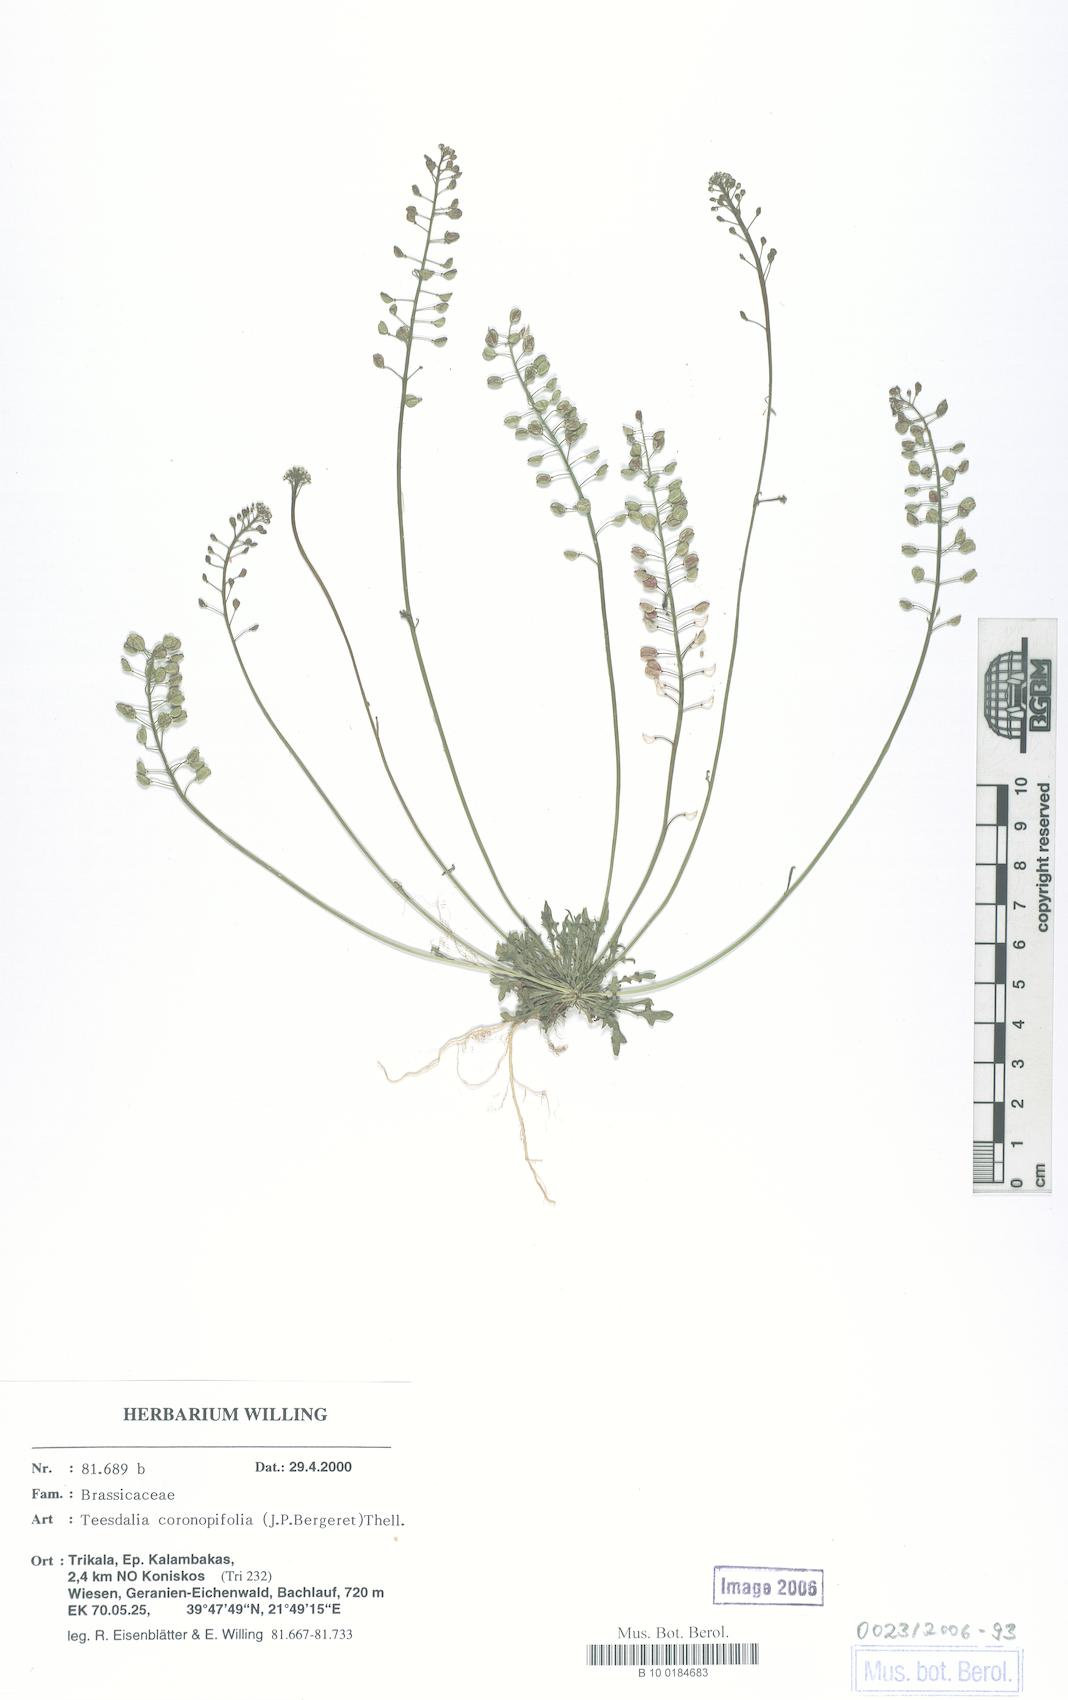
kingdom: Plantae
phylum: Tracheophyta
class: Magnoliopsida
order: Brassicales
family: Brassicaceae
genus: Teesdalia
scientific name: Teesdalia coronopifolia
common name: Lesser shepherdscress
